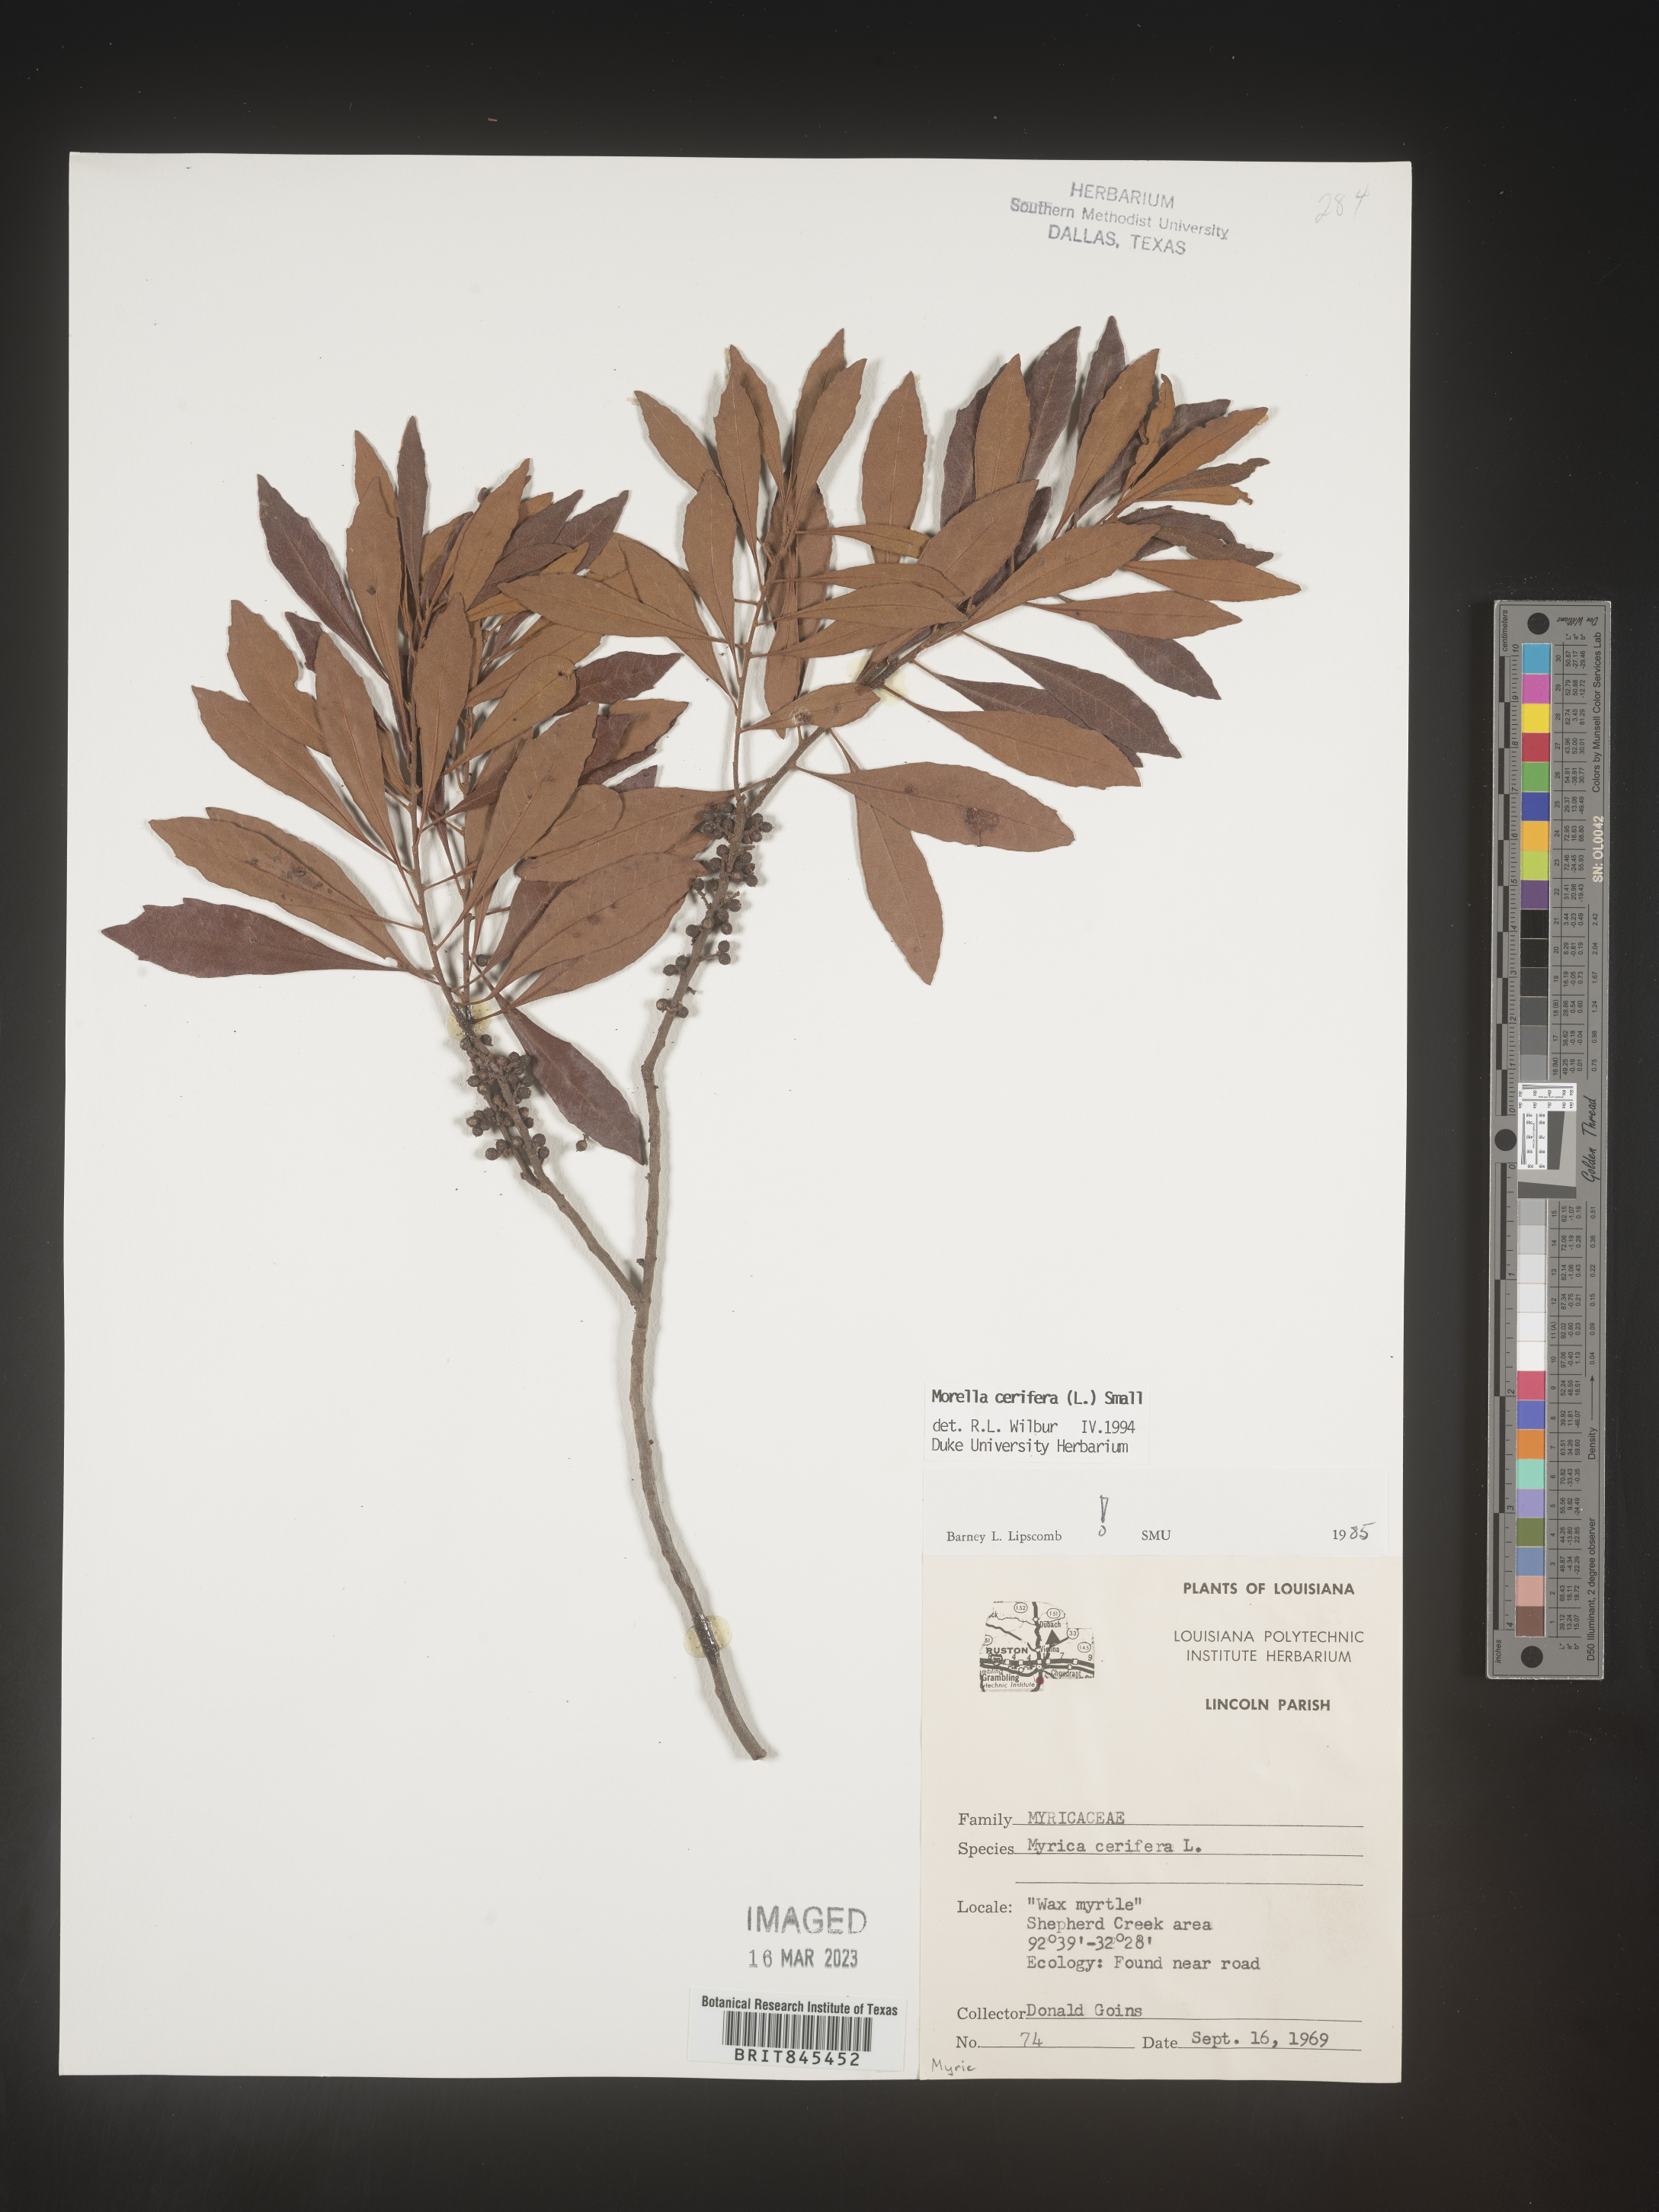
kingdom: Plantae
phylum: Tracheophyta
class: Magnoliopsida
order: Fagales
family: Myricaceae
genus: Morella
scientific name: Morella cerifera
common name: Wax myrtle
